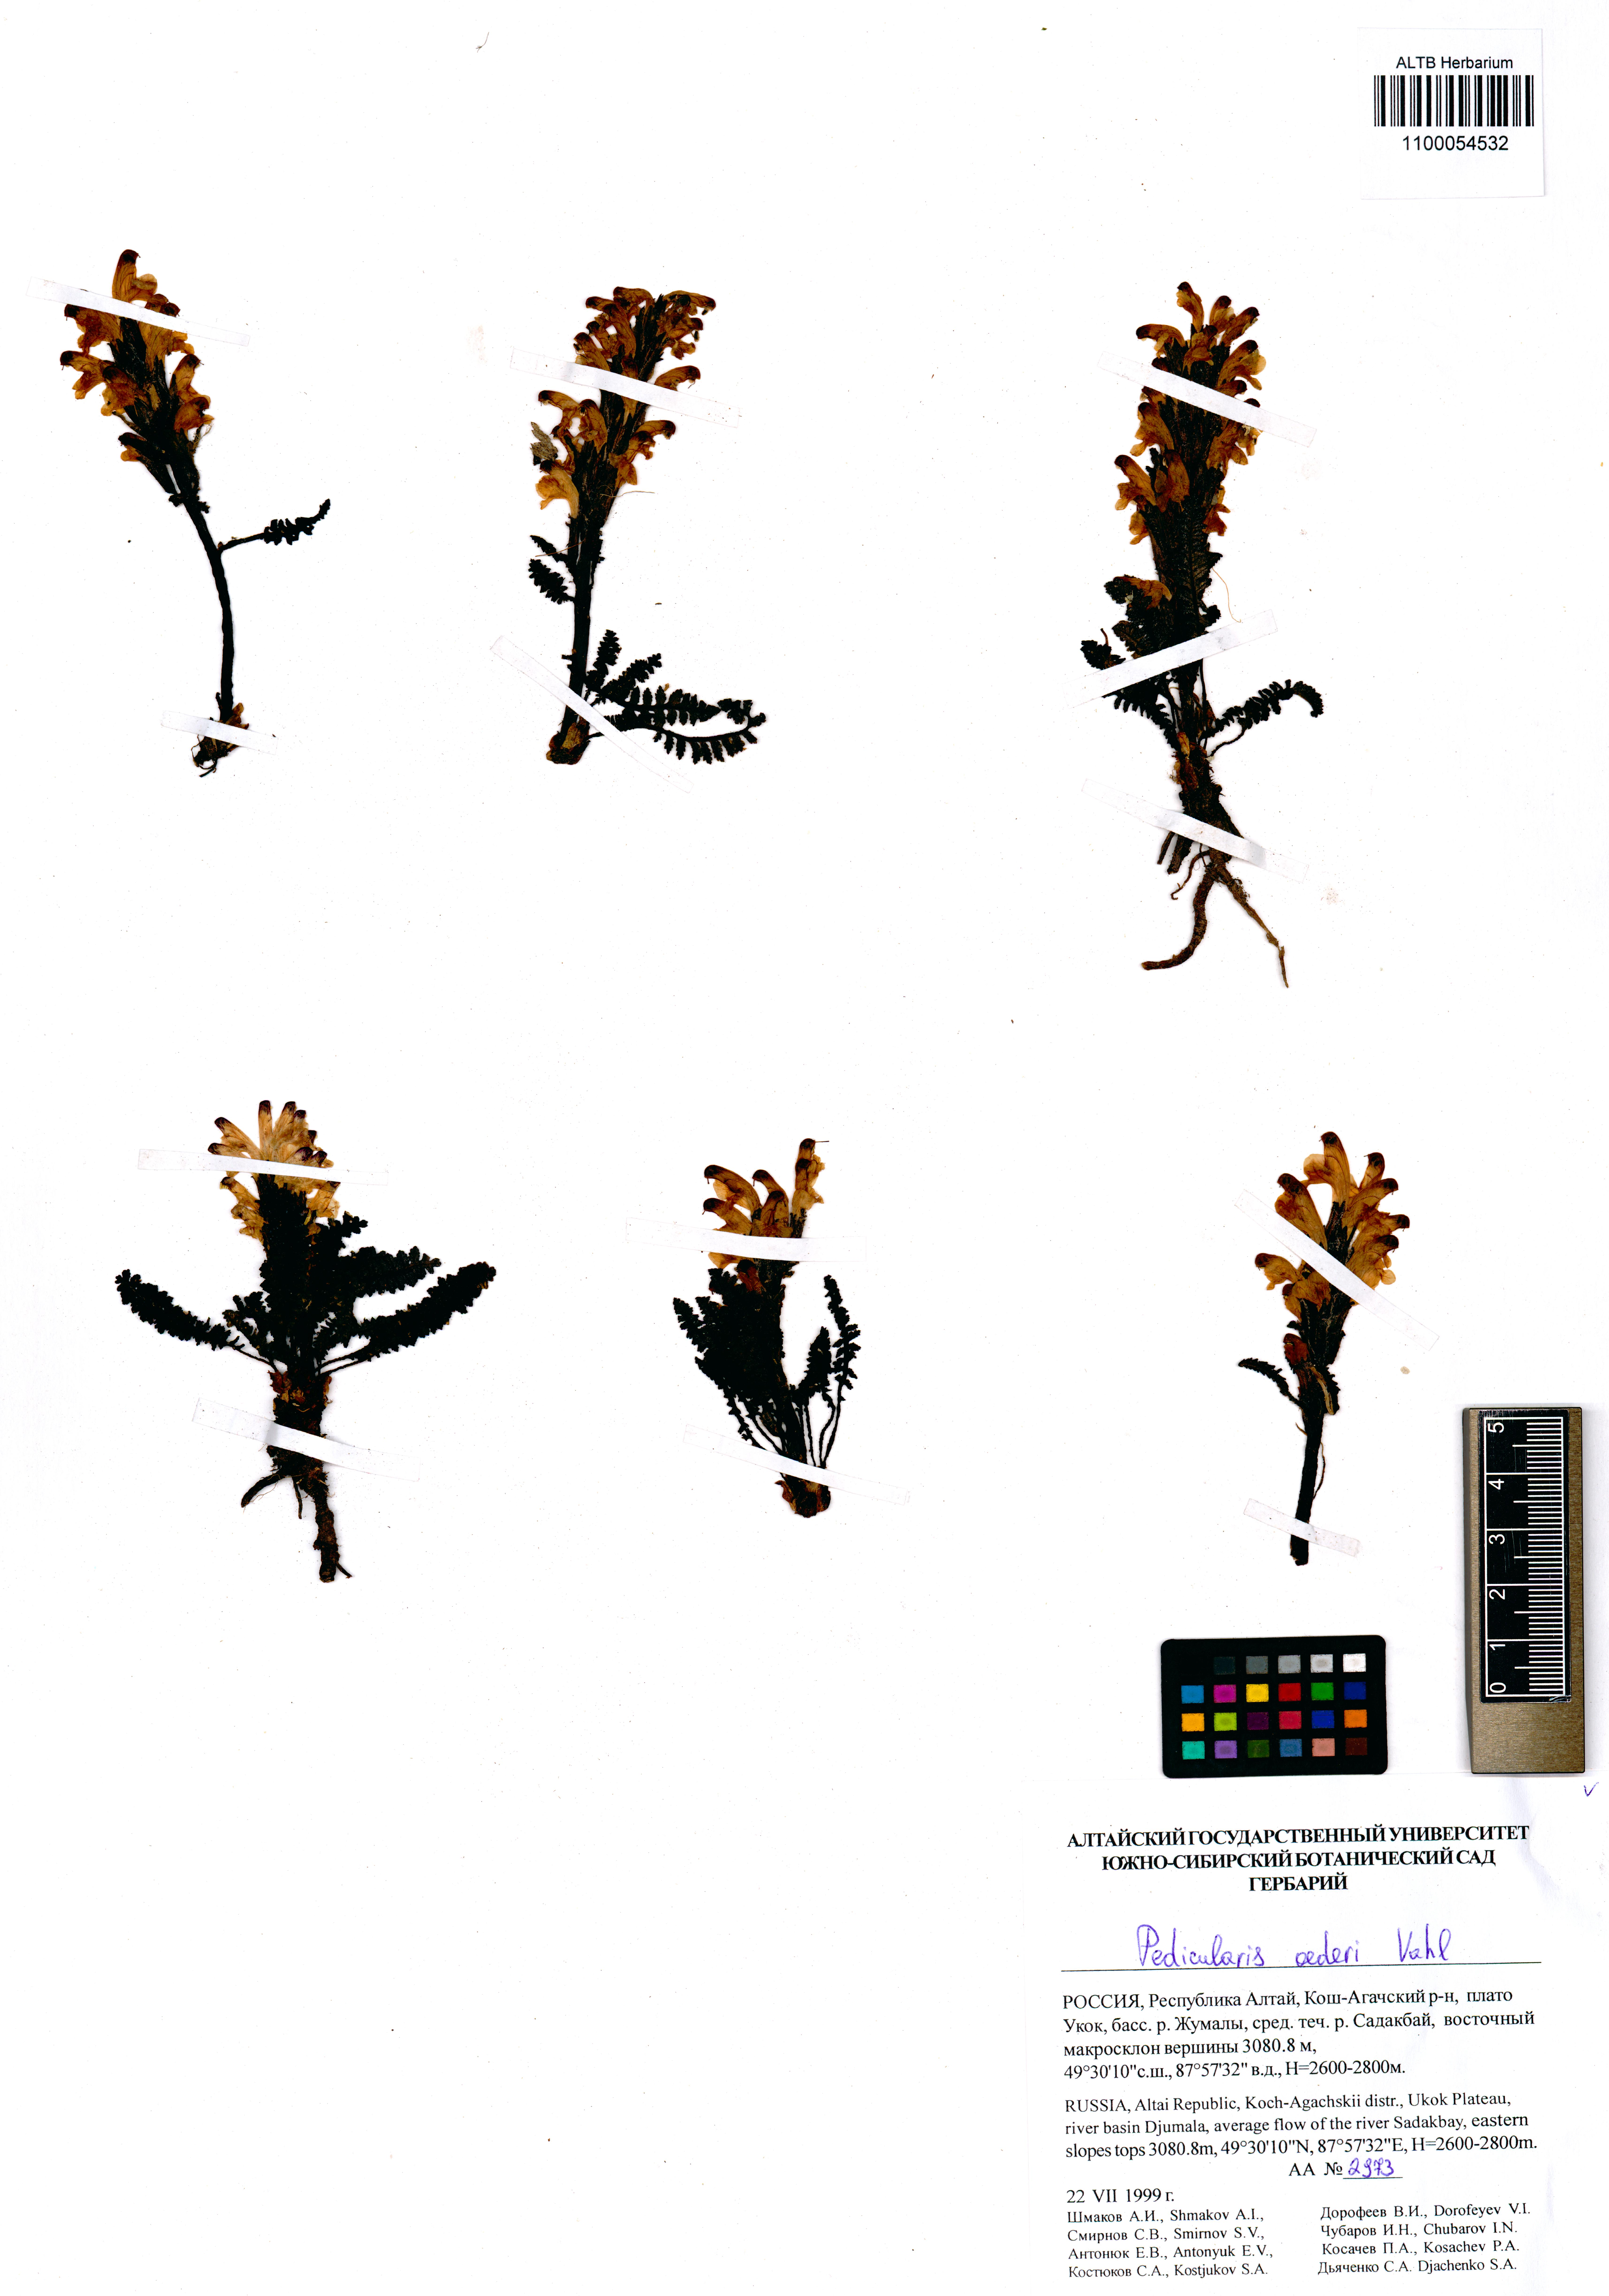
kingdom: Plantae
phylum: Tracheophyta
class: Magnoliopsida
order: Lamiales
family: Orobanchaceae
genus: Pedicularis
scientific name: Pedicularis oederi
